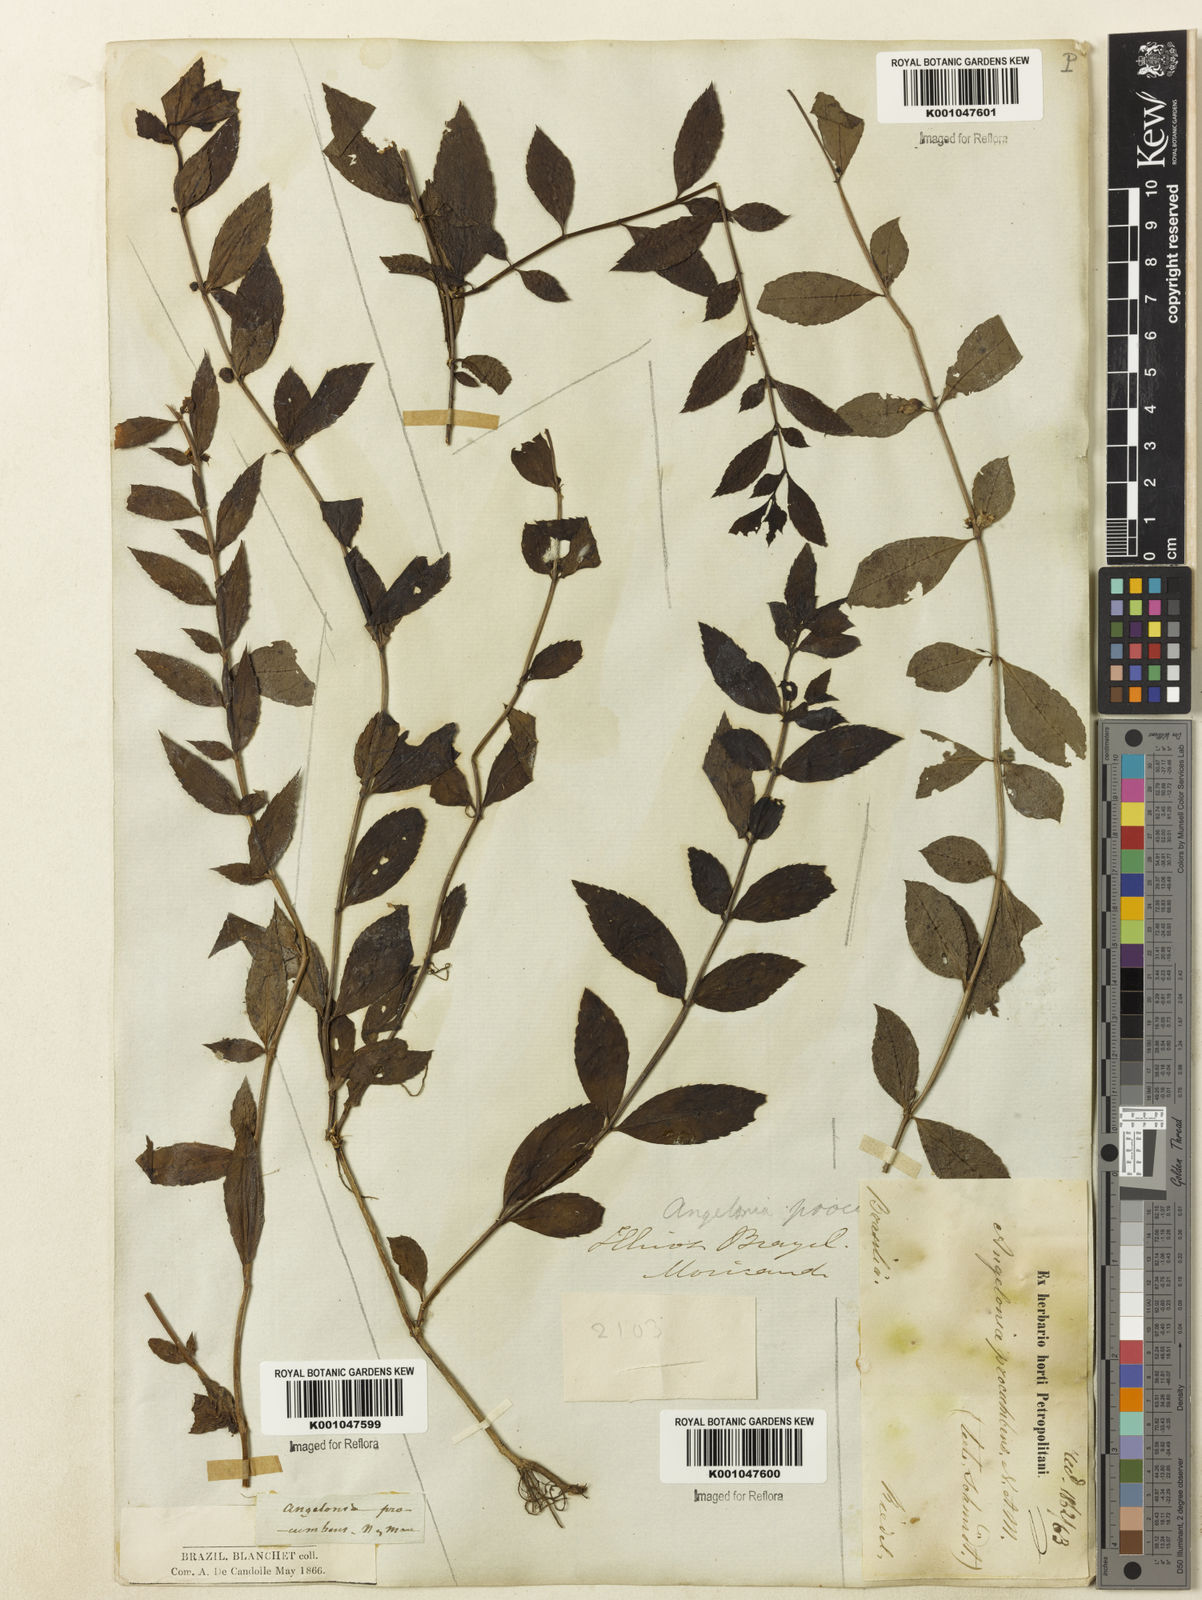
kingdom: Plantae
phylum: Tracheophyta
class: Magnoliopsida
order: Lamiales
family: Plantaginaceae
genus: Angelonia
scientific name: Angelonia procumbens
